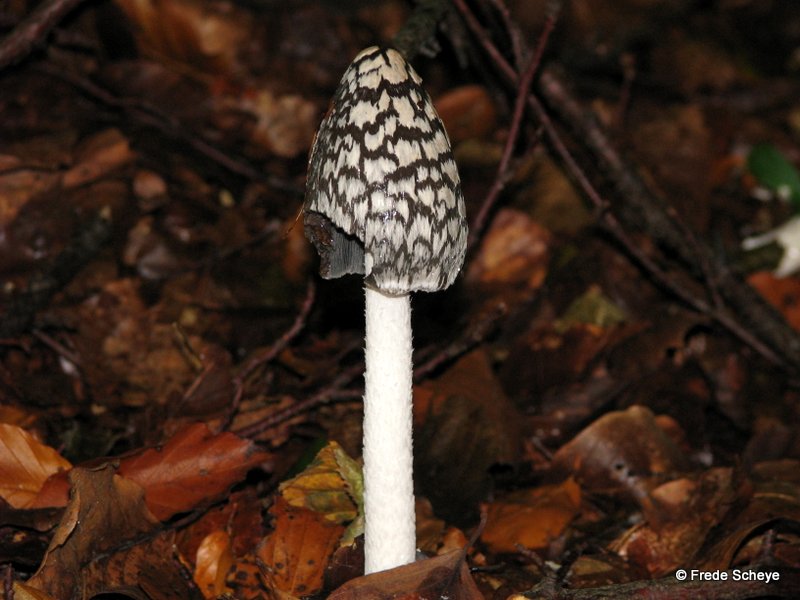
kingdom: Fungi
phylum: Basidiomycota
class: Agaricomycetes
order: Agaricales
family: Psathyrellaceae
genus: Coprinopsis
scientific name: Coprinopsis picacea
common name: skade-blækhat
